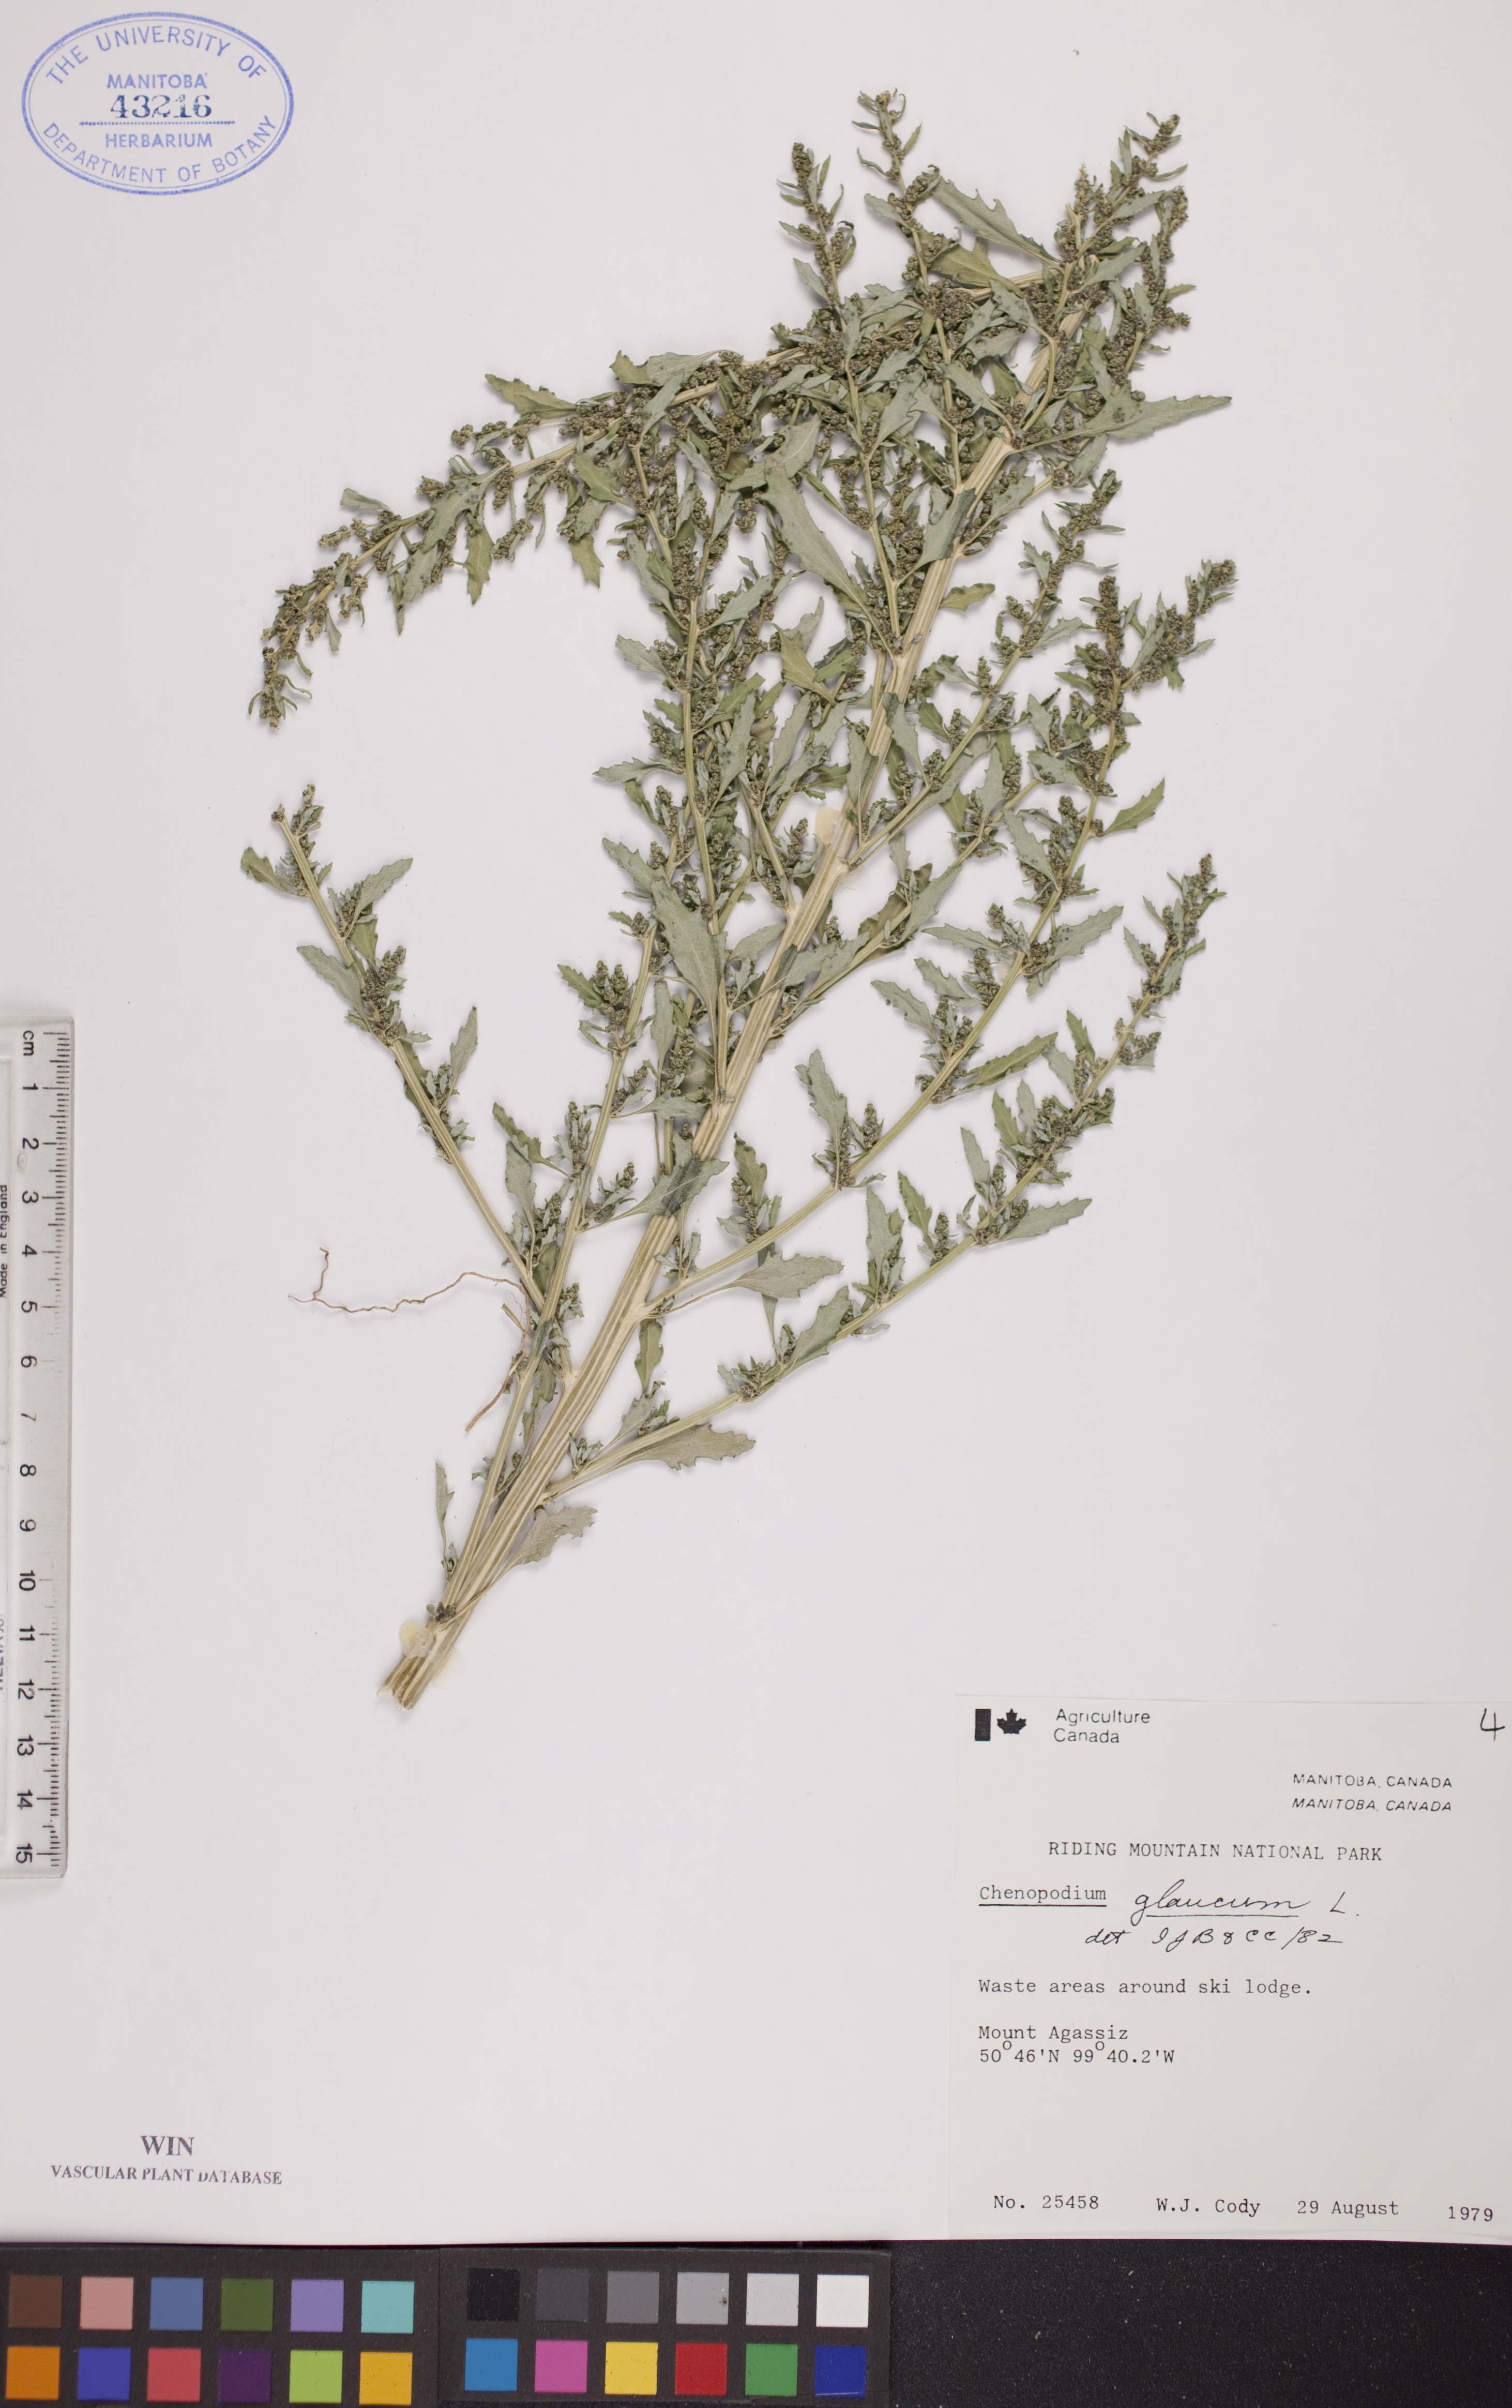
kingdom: Plantae
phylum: Tracheophyta
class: Magnoliopsida
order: Caryophyllales
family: Amaranthaceae
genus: Oxybasis
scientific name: Oxybasis glauca
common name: Glaucous goosefoot
